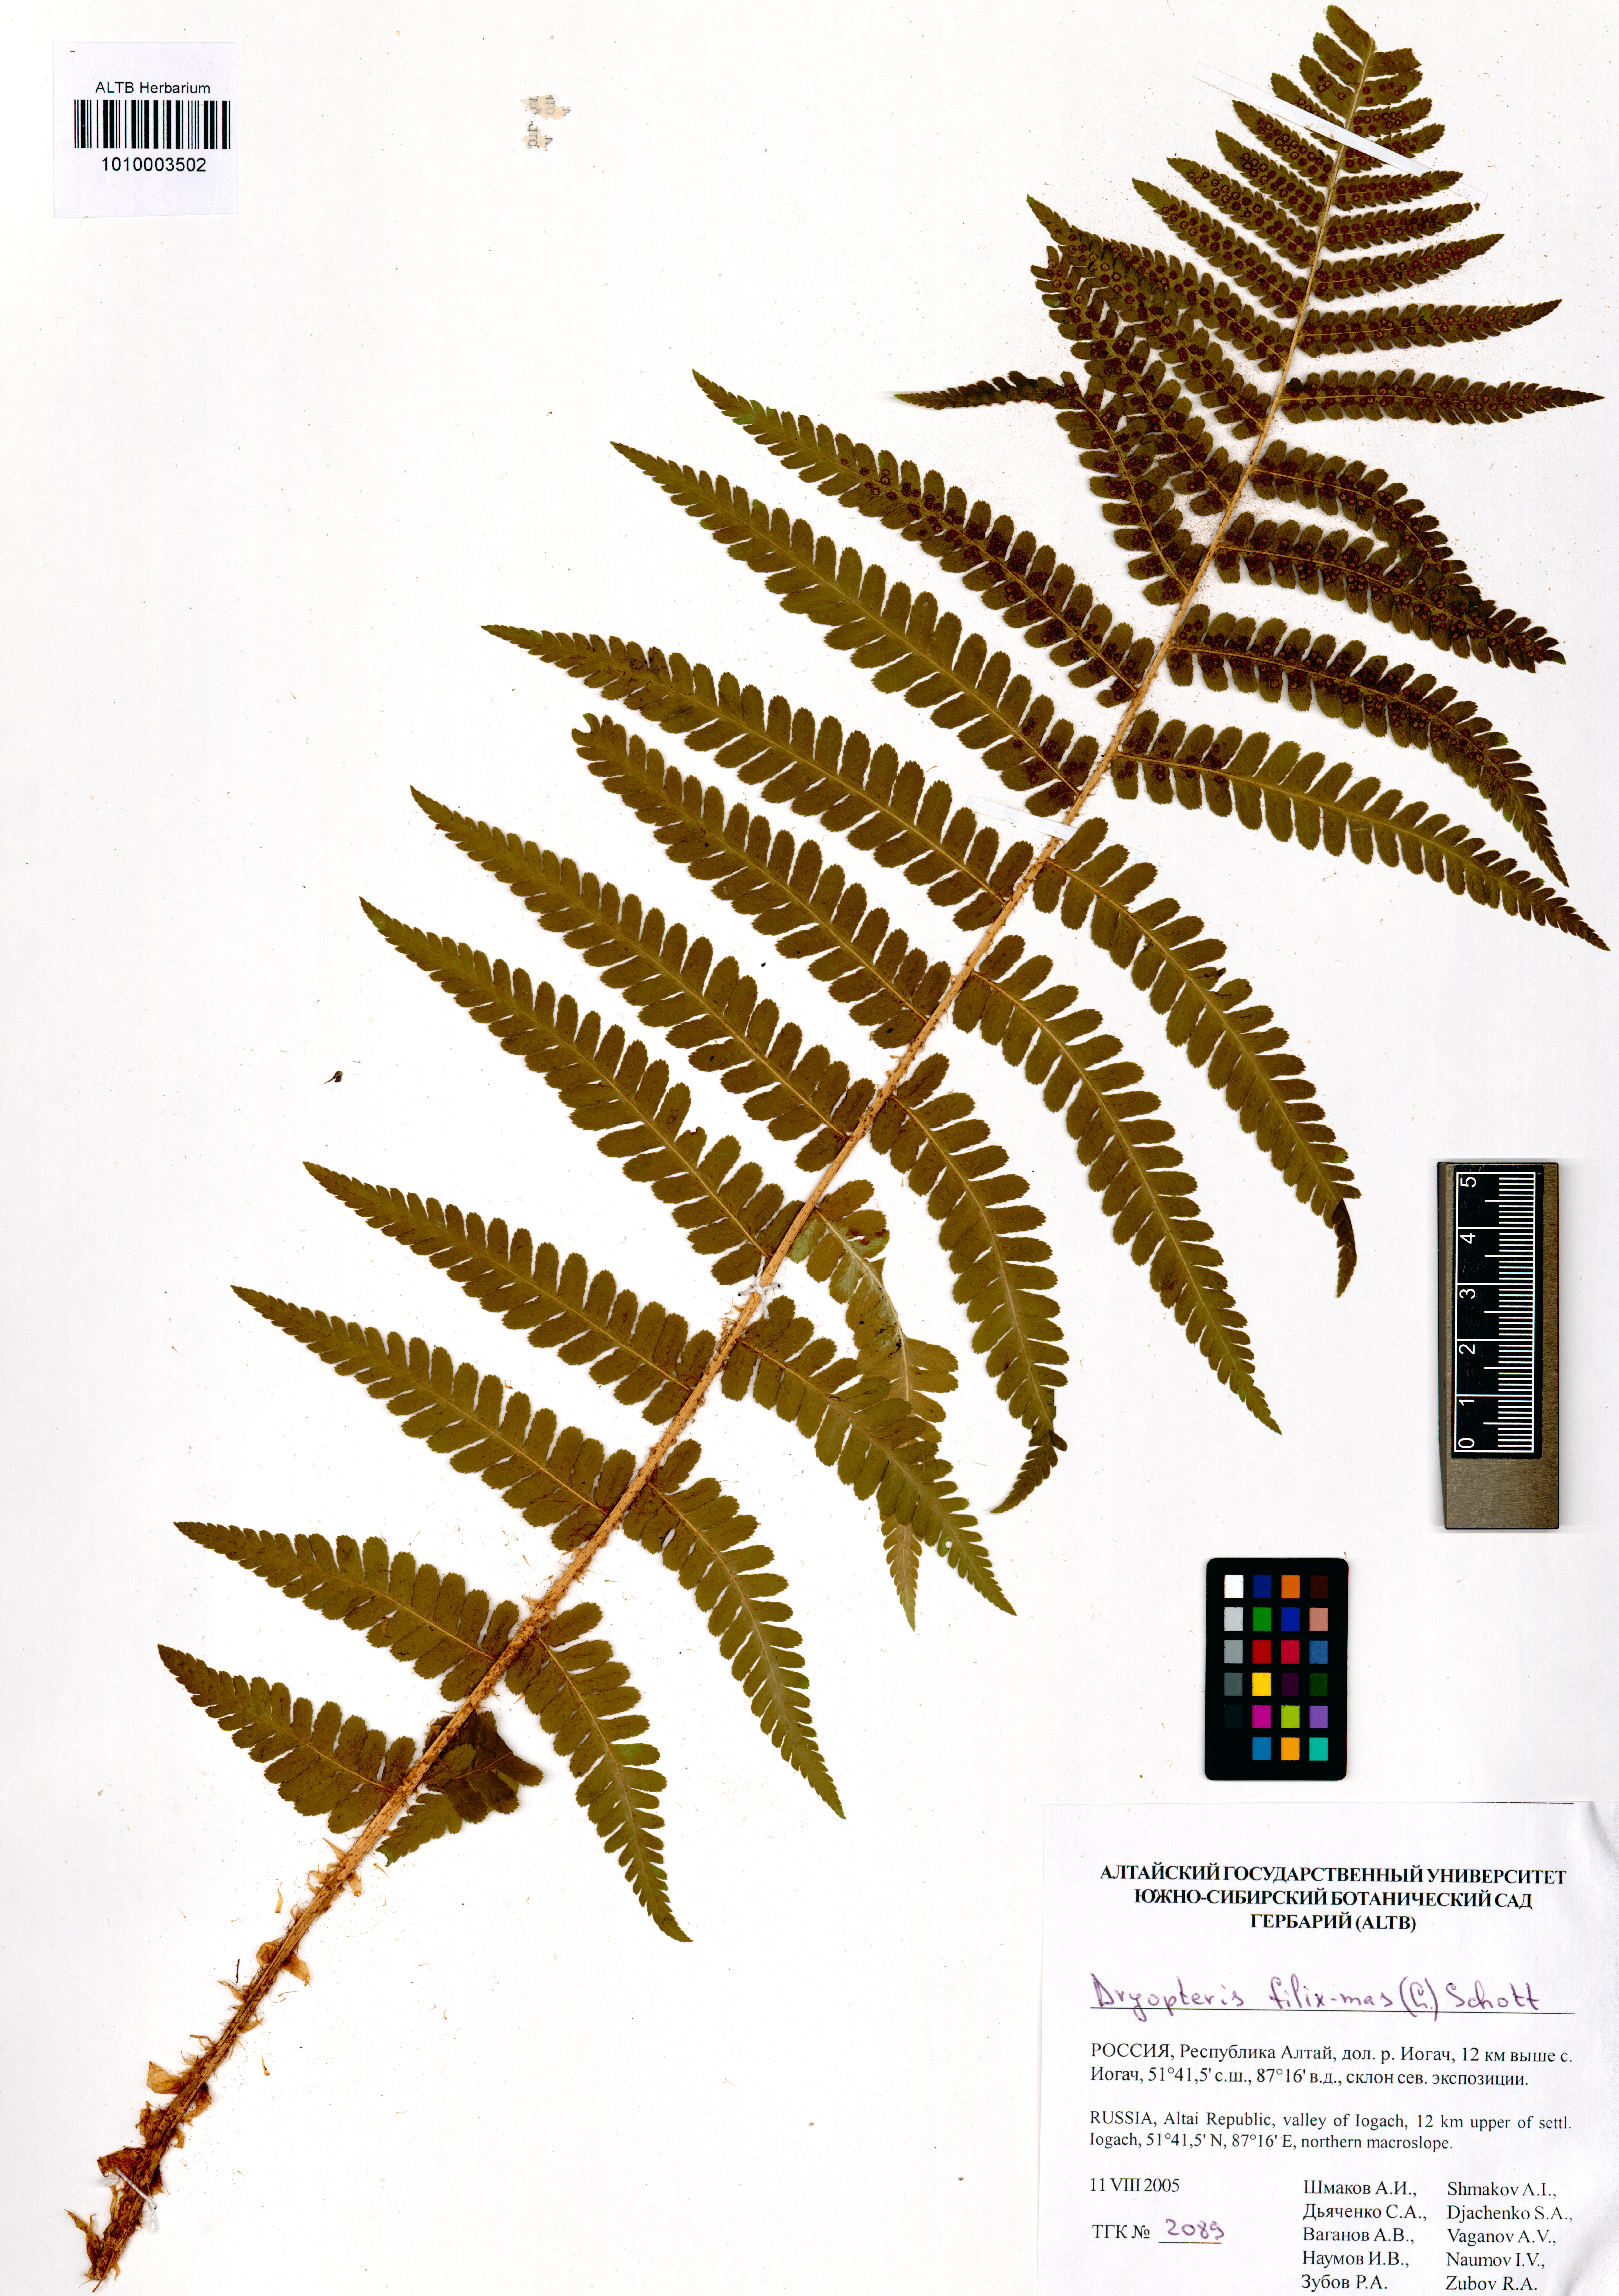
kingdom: Plantae
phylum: Tracheophyta
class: Polypodiopsida
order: Polypodiales
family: Dryopteridaceae
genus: Dryopteris
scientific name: Dryopteris filix-mas
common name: Male fern
